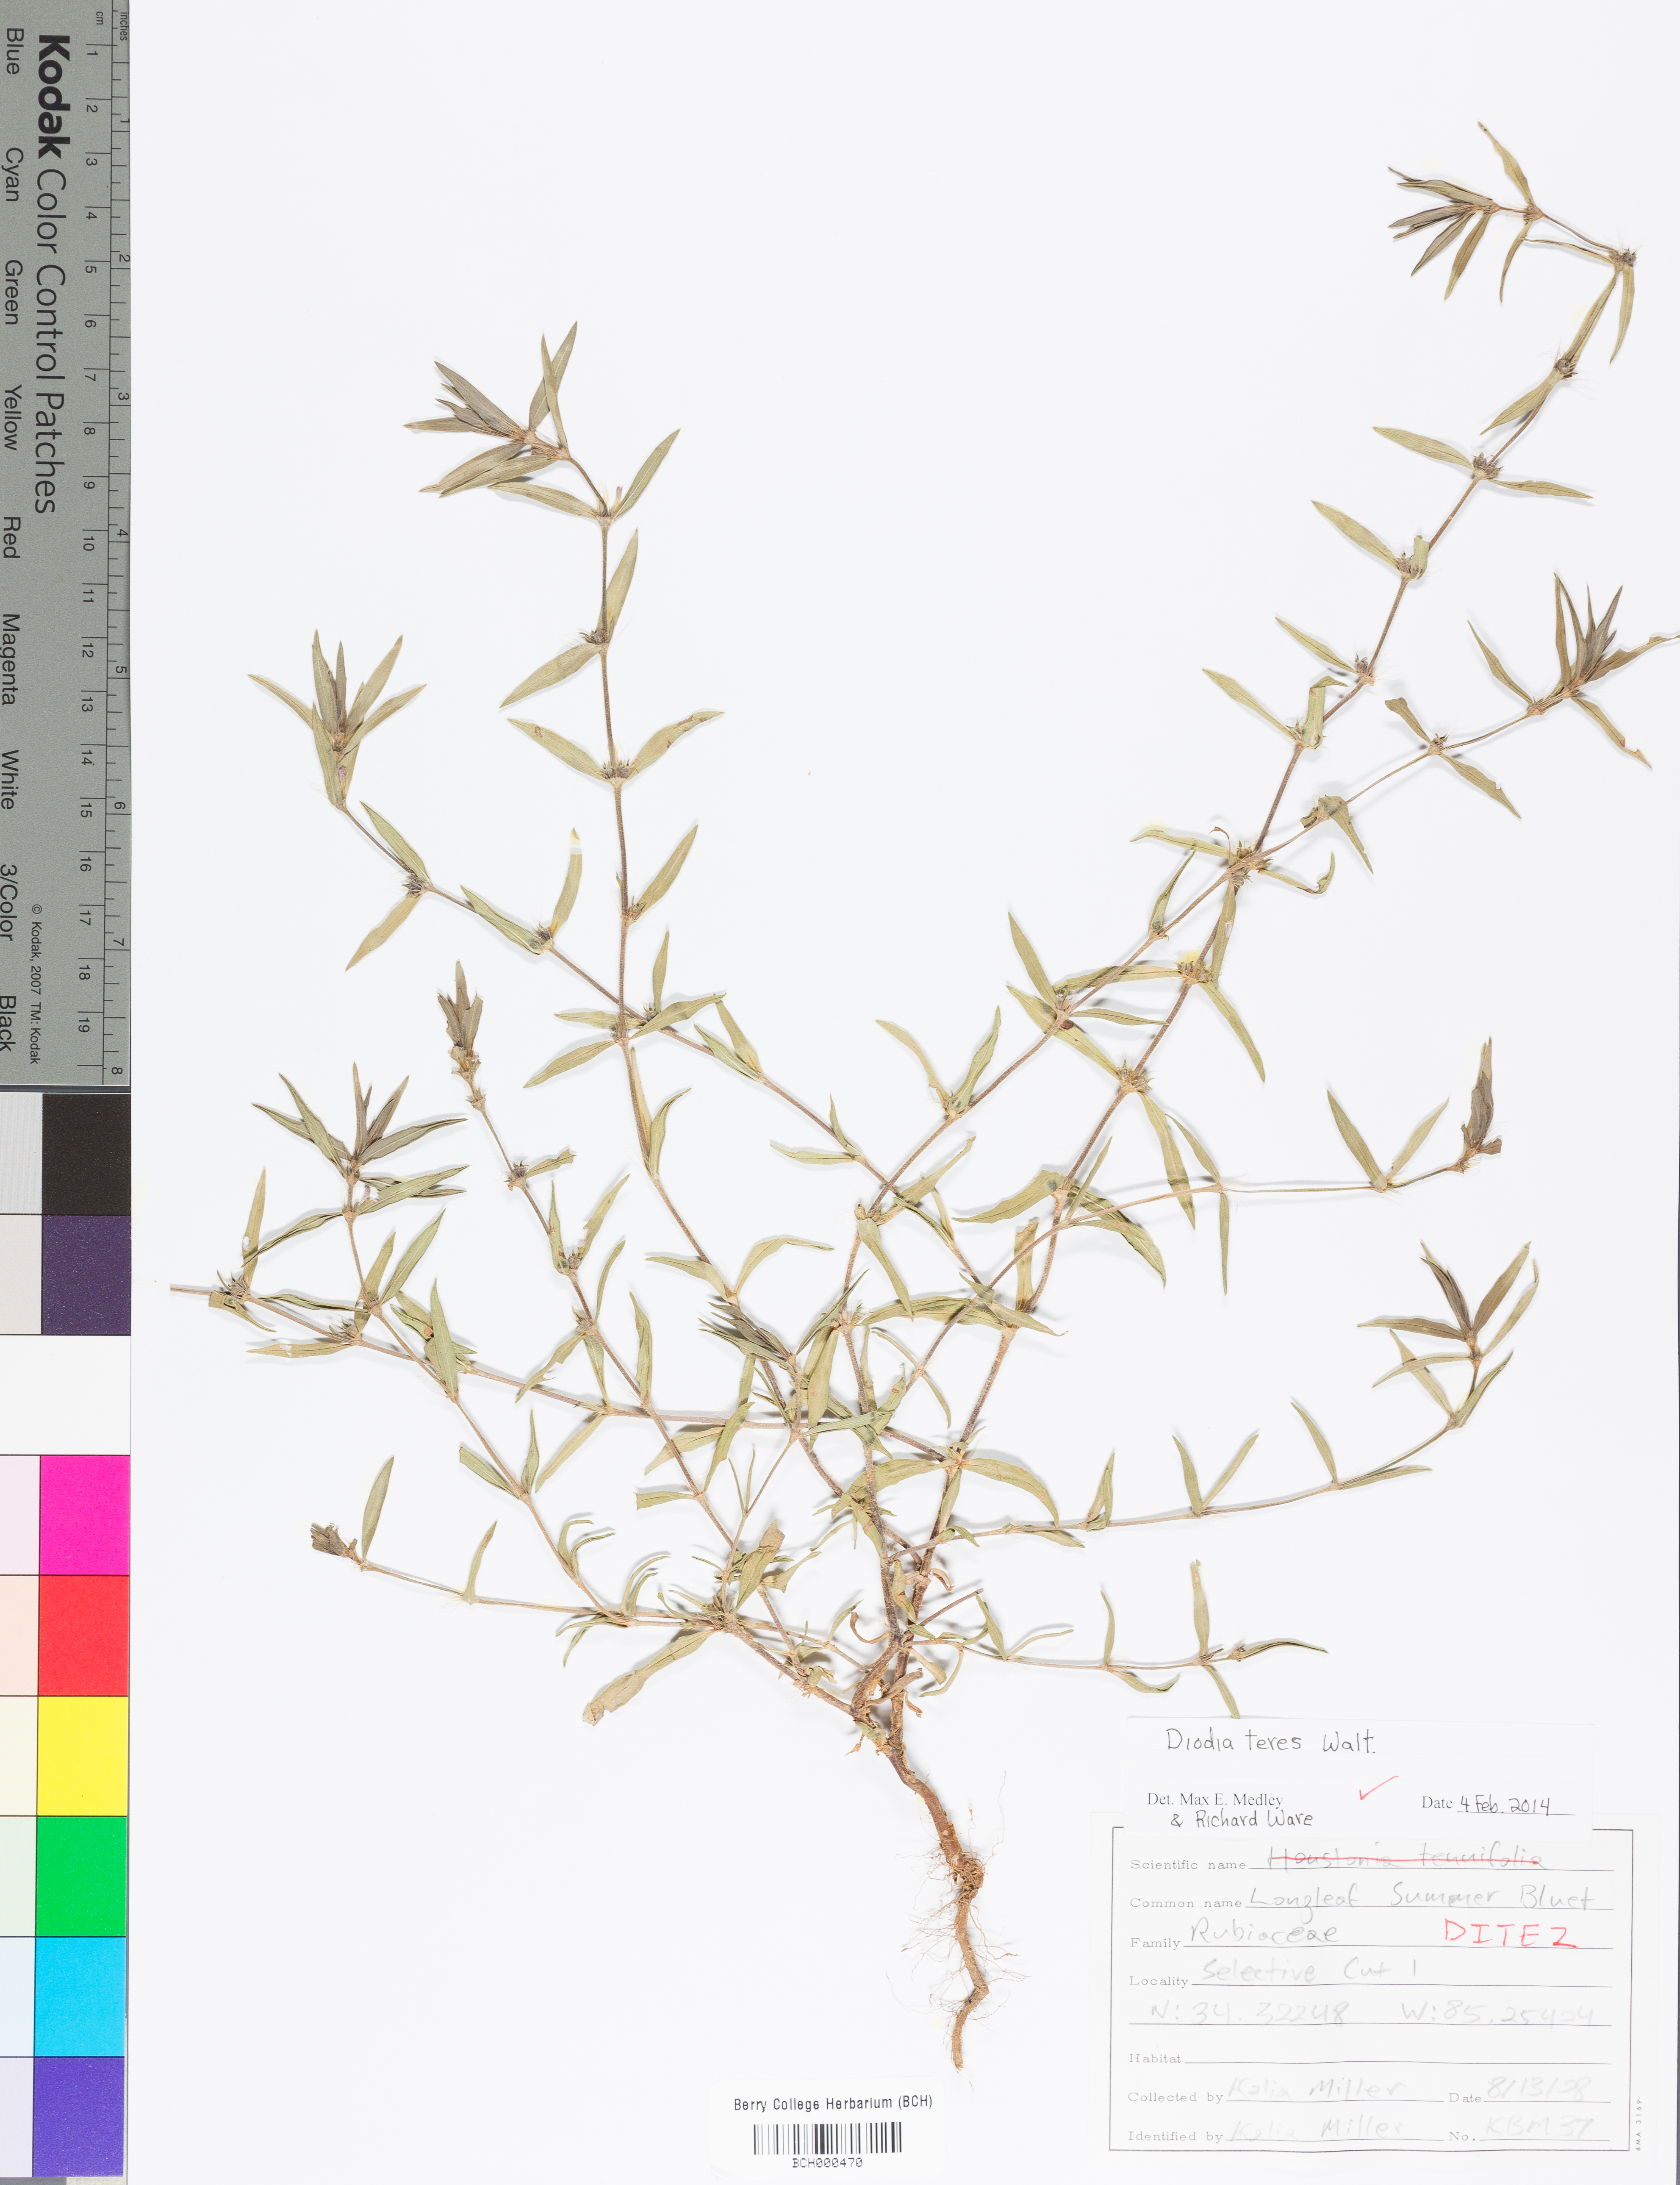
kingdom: Plantae
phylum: Tracheophyta
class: Magnoliopsida
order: Gentianales
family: Rubiaceae
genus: Hexasepalum
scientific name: Hexasepalum teres
